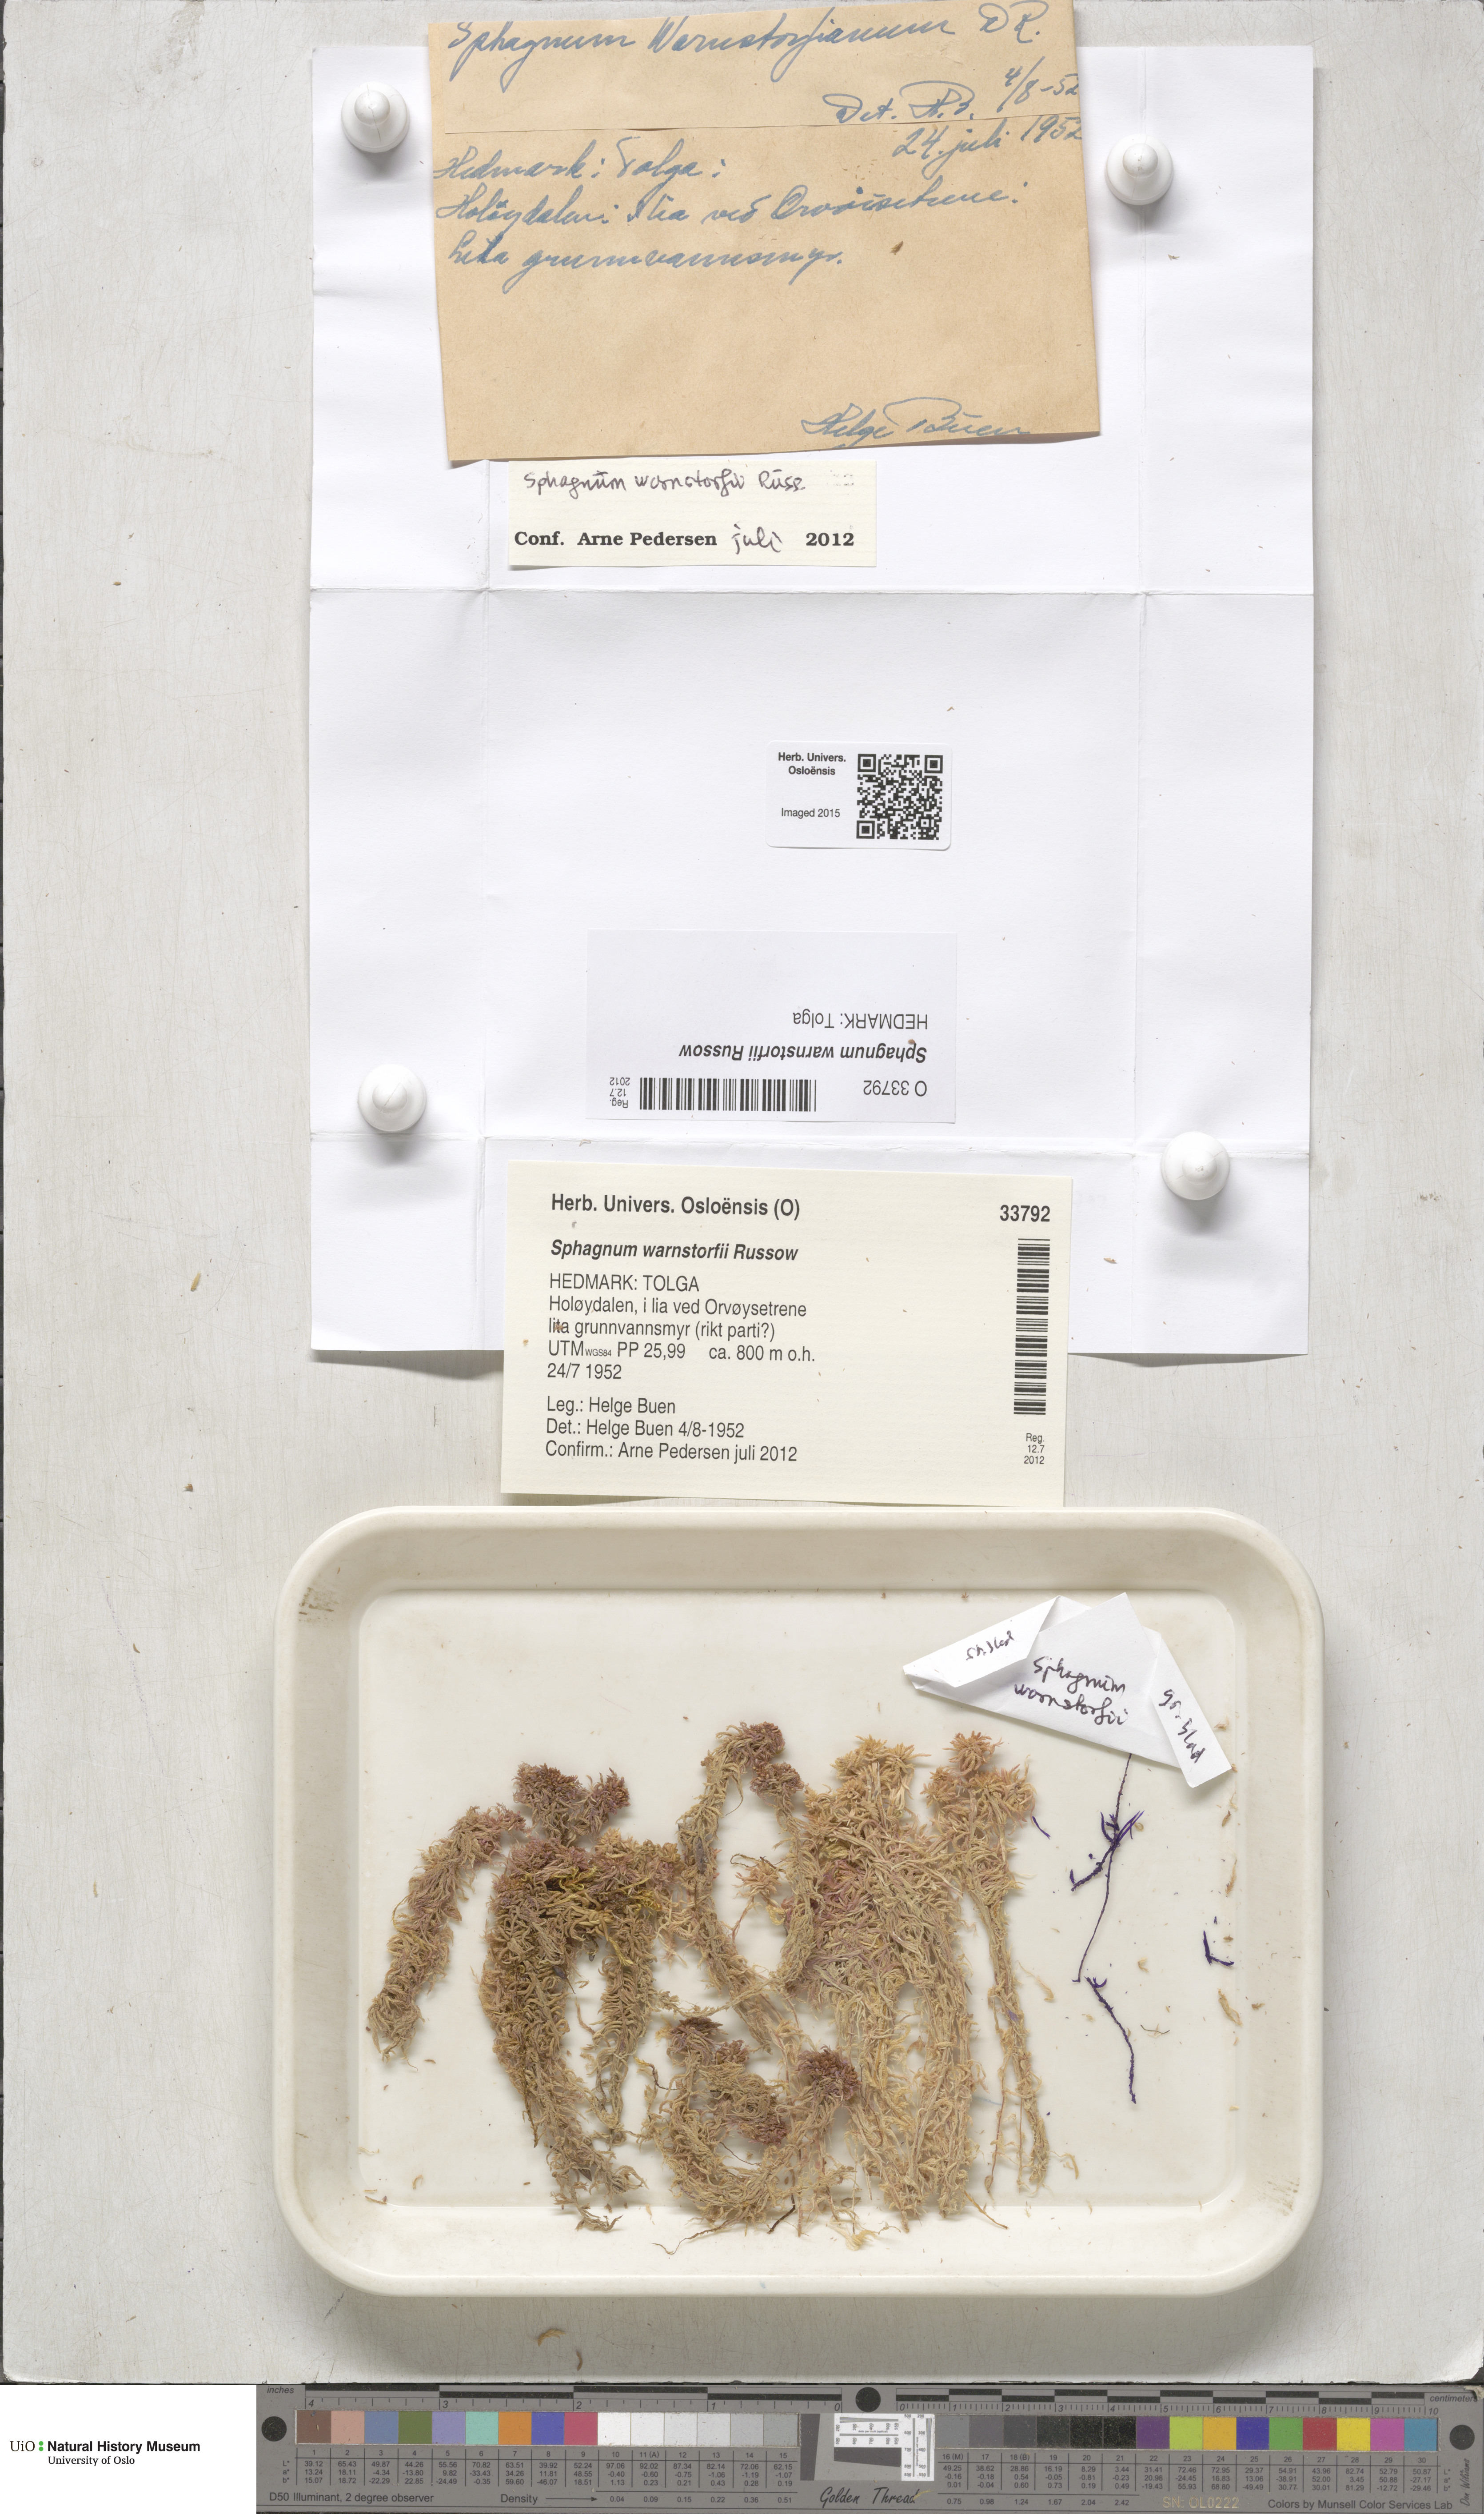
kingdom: Plantae
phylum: Bryophyta
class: Sphagnopsida
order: Sphagnales
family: Sphagnaceae
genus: Sphagnum
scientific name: Sphagnum warnstorfii
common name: Warnstorf's peat moss
